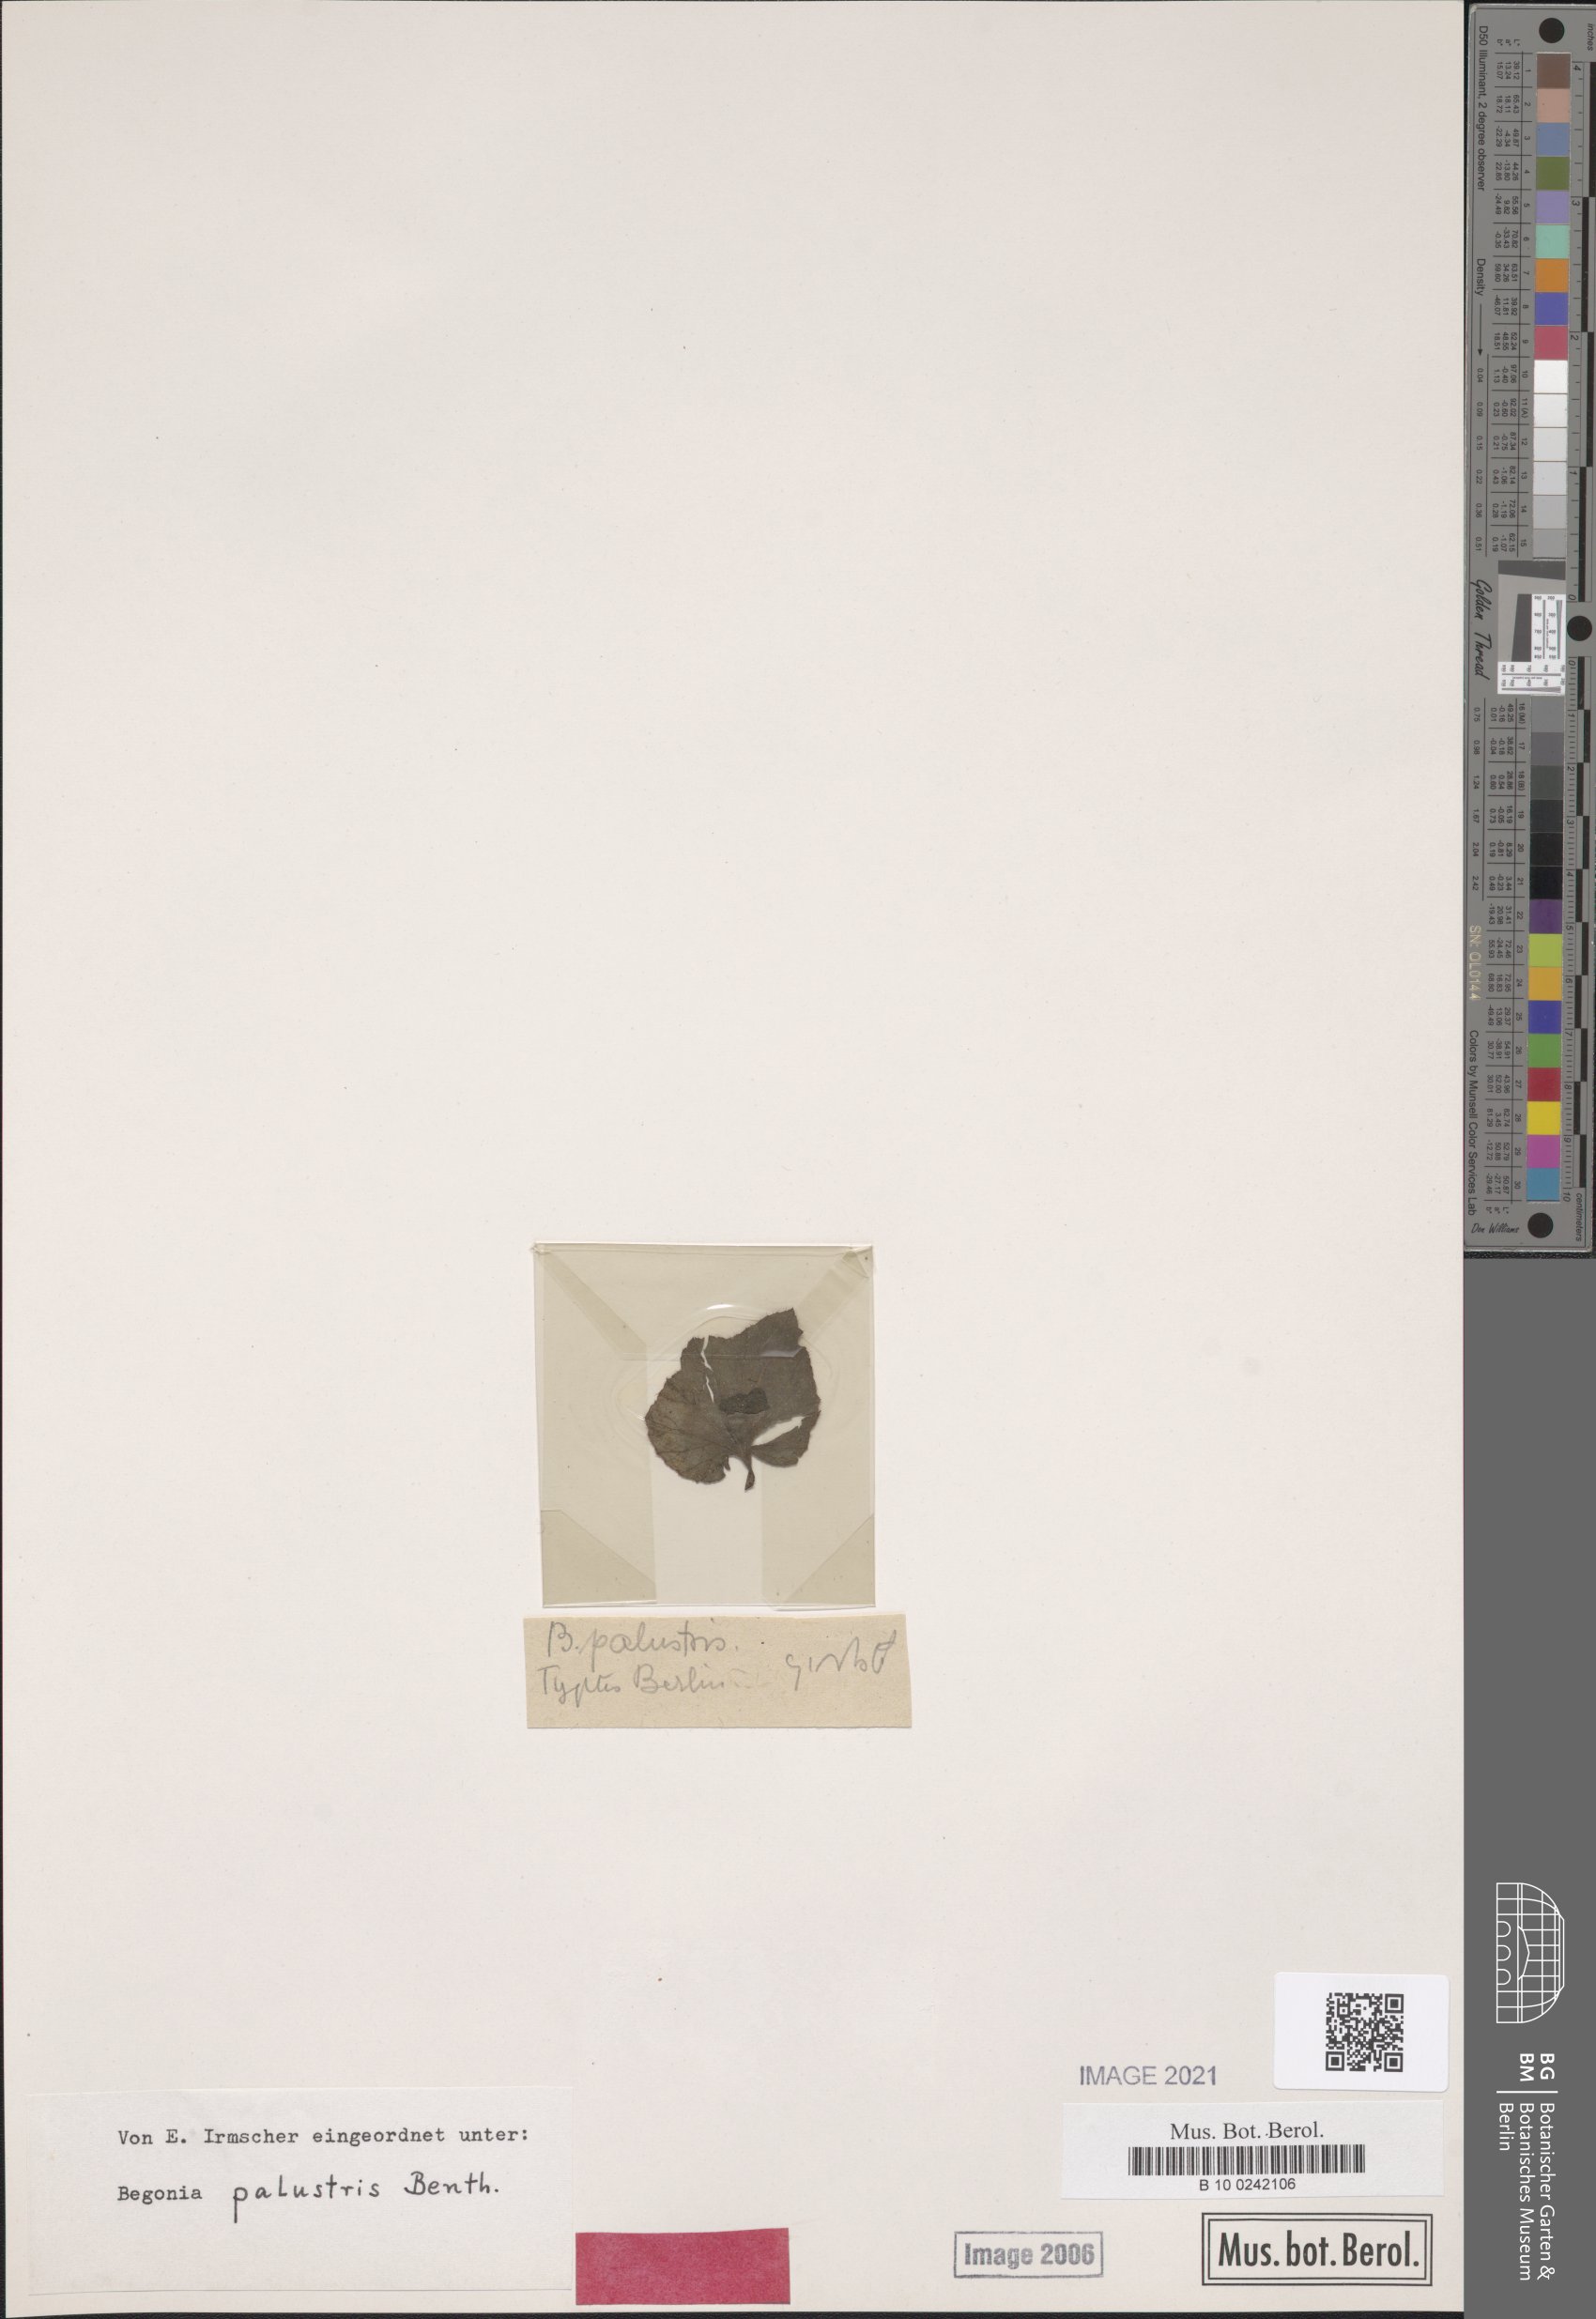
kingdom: Plantae
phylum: Tracheophyta
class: Magnoliopsida
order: Cucurbitales
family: Begoniaceae
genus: Begonia
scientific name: Begonia fischeri
